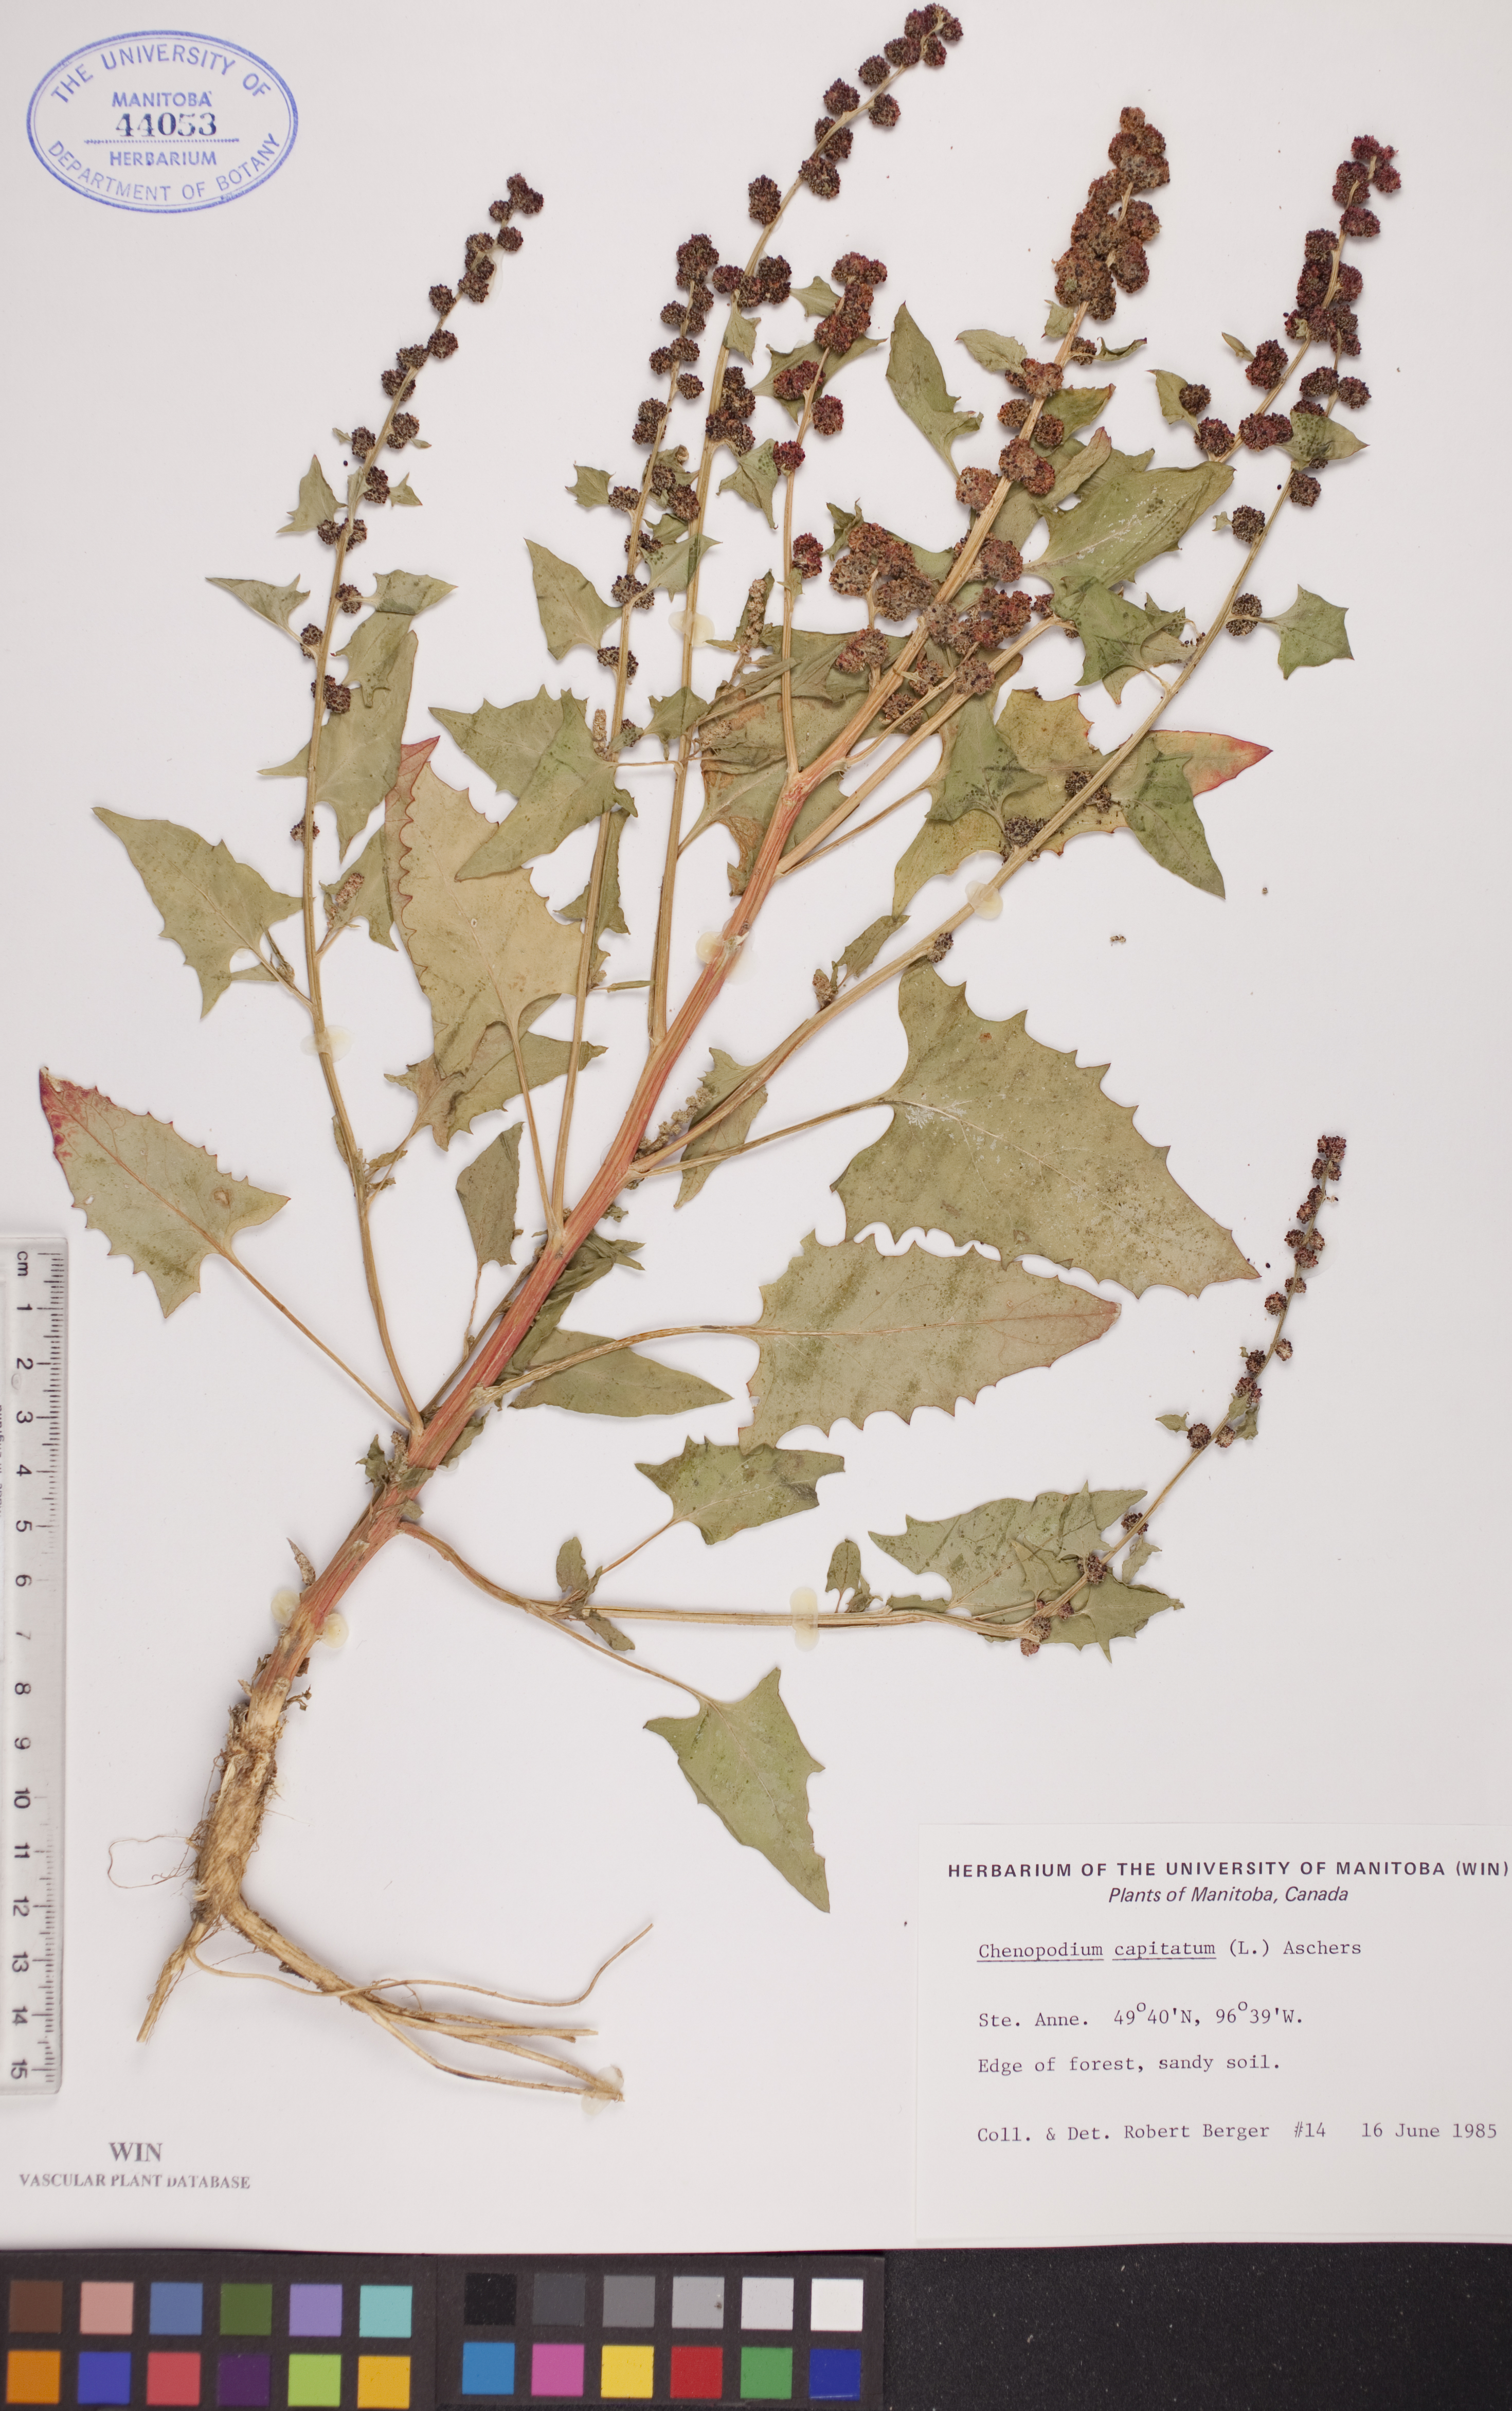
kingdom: Plantae
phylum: Tracheophyta
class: Magnoliopsida
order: Caryophyllales
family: Amaranthaceae
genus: Blitum
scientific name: Blitum capitatum
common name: Strawberry-blight
